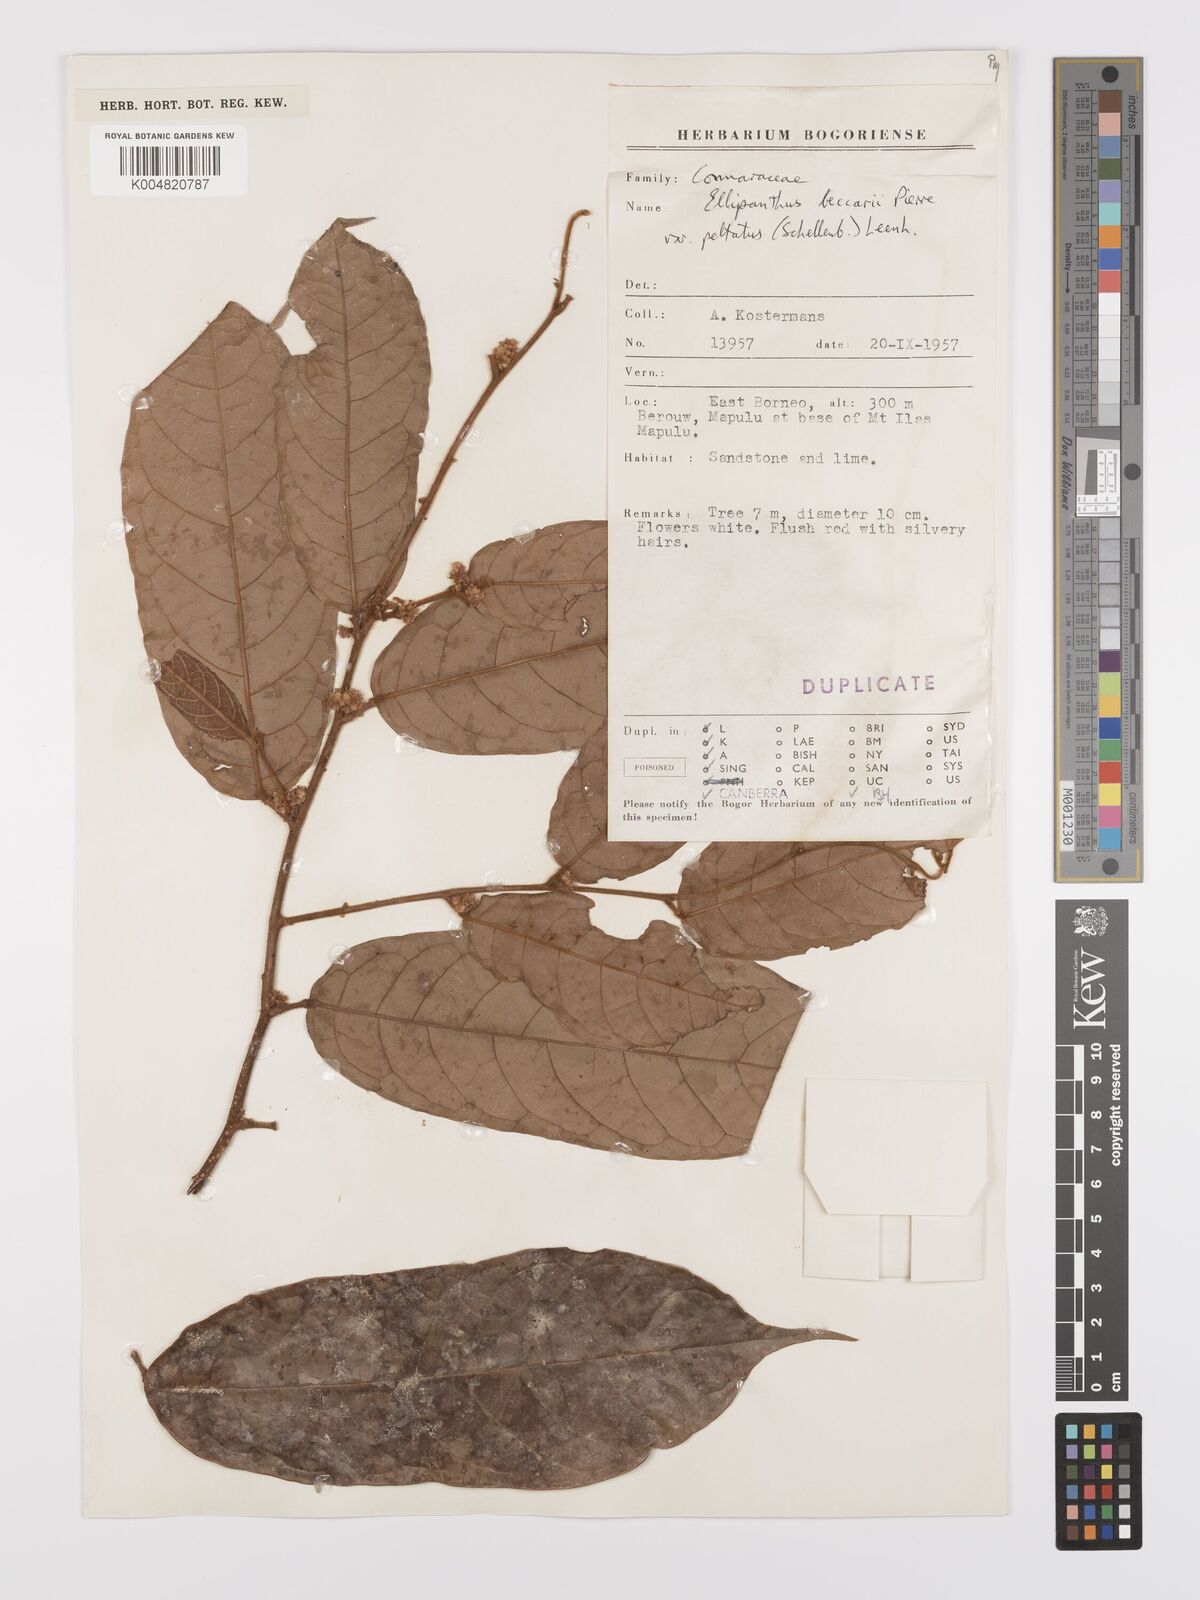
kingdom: Plantae
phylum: Tracheophyta
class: Magnoliopsida
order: Oxalidales
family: Connaraceae
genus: Ellipanthus
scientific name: Ellipanthus beccarii
